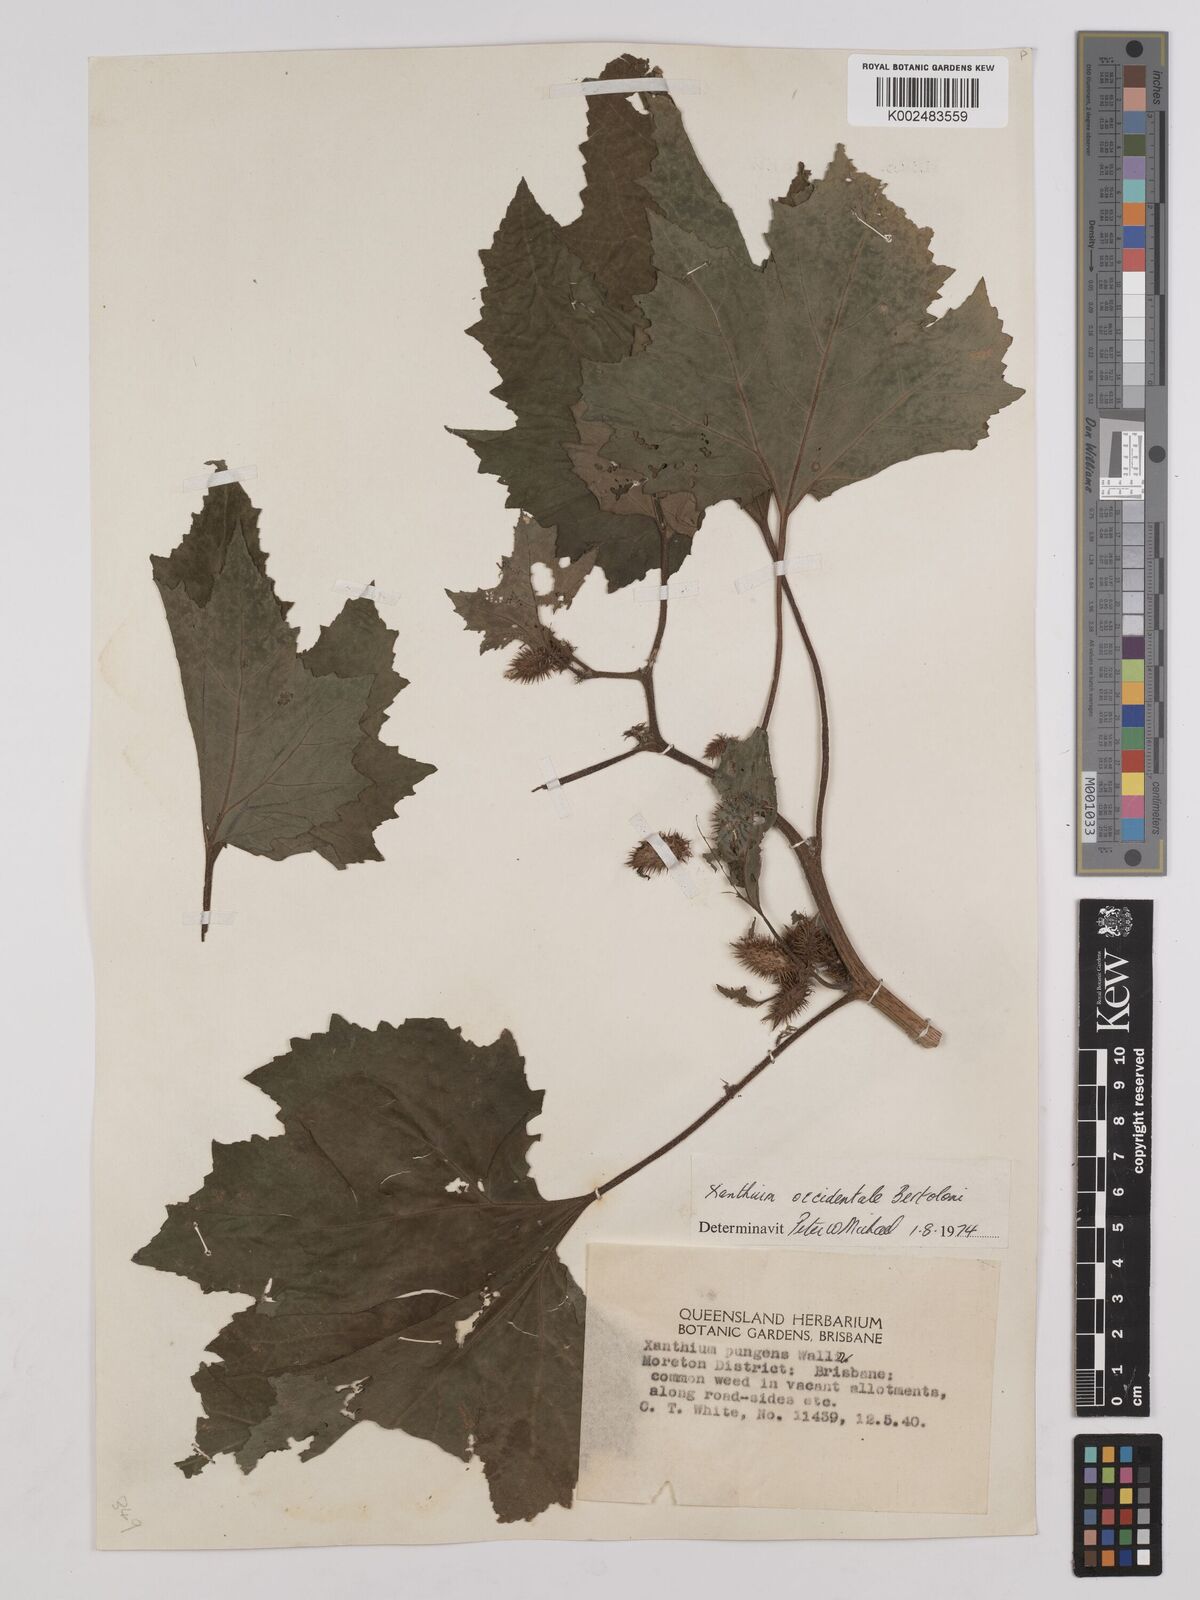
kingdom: Plantae
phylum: Tracheophyta
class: Magnoliopsida
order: Asterales
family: Asteraceae
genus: Xanthium
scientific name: Xanthium occidentale
